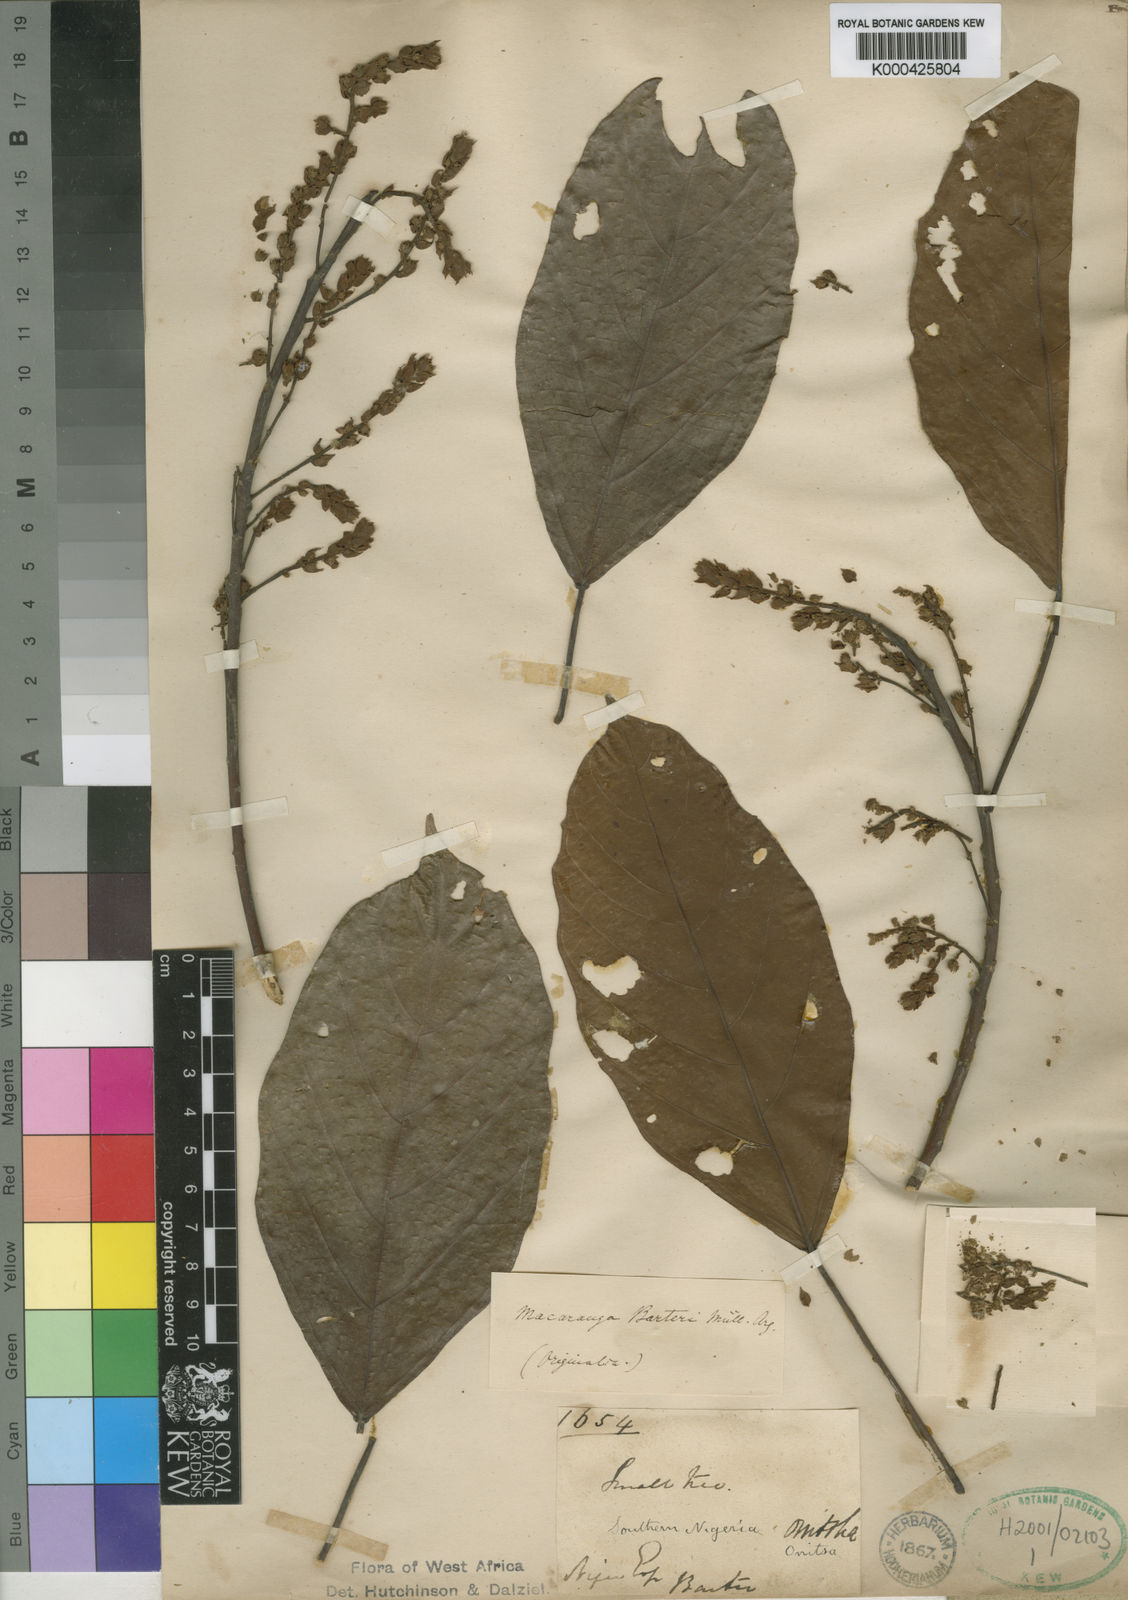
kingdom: Plantae
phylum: Tracheophyta
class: Magnoliopsida
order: Malpighiales
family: Euphorbiaceae
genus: Macaranga
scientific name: Macaranga
